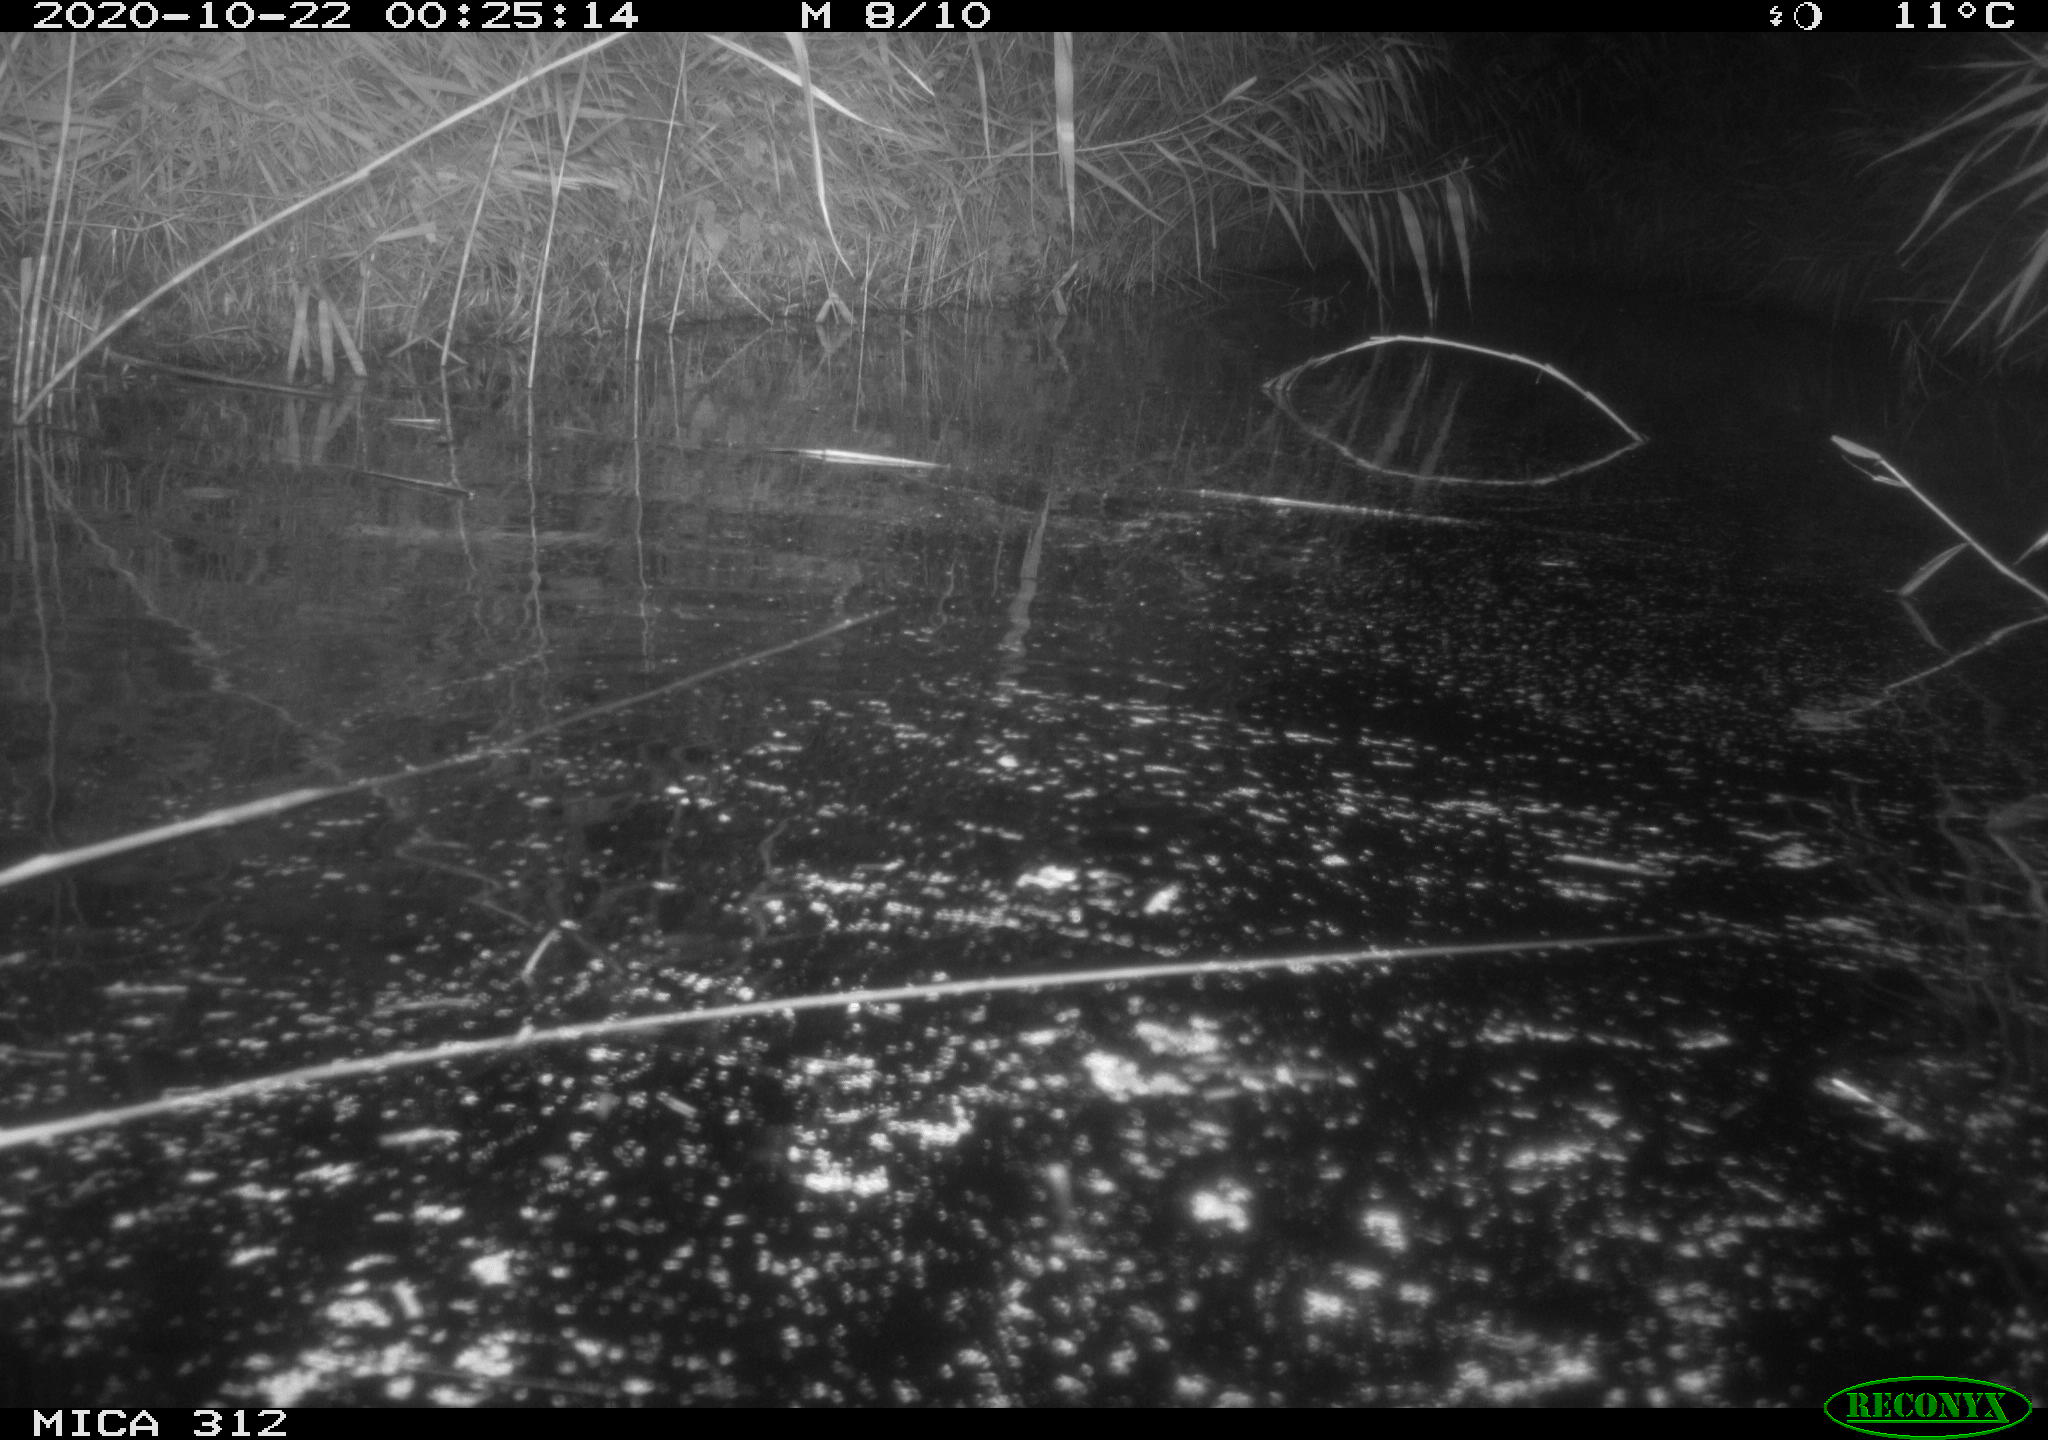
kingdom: Animalia
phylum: Chordata
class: Mammalia
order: Rodentia
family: Muridae
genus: Rattus
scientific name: Rattus norvegicus
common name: Brown rat
